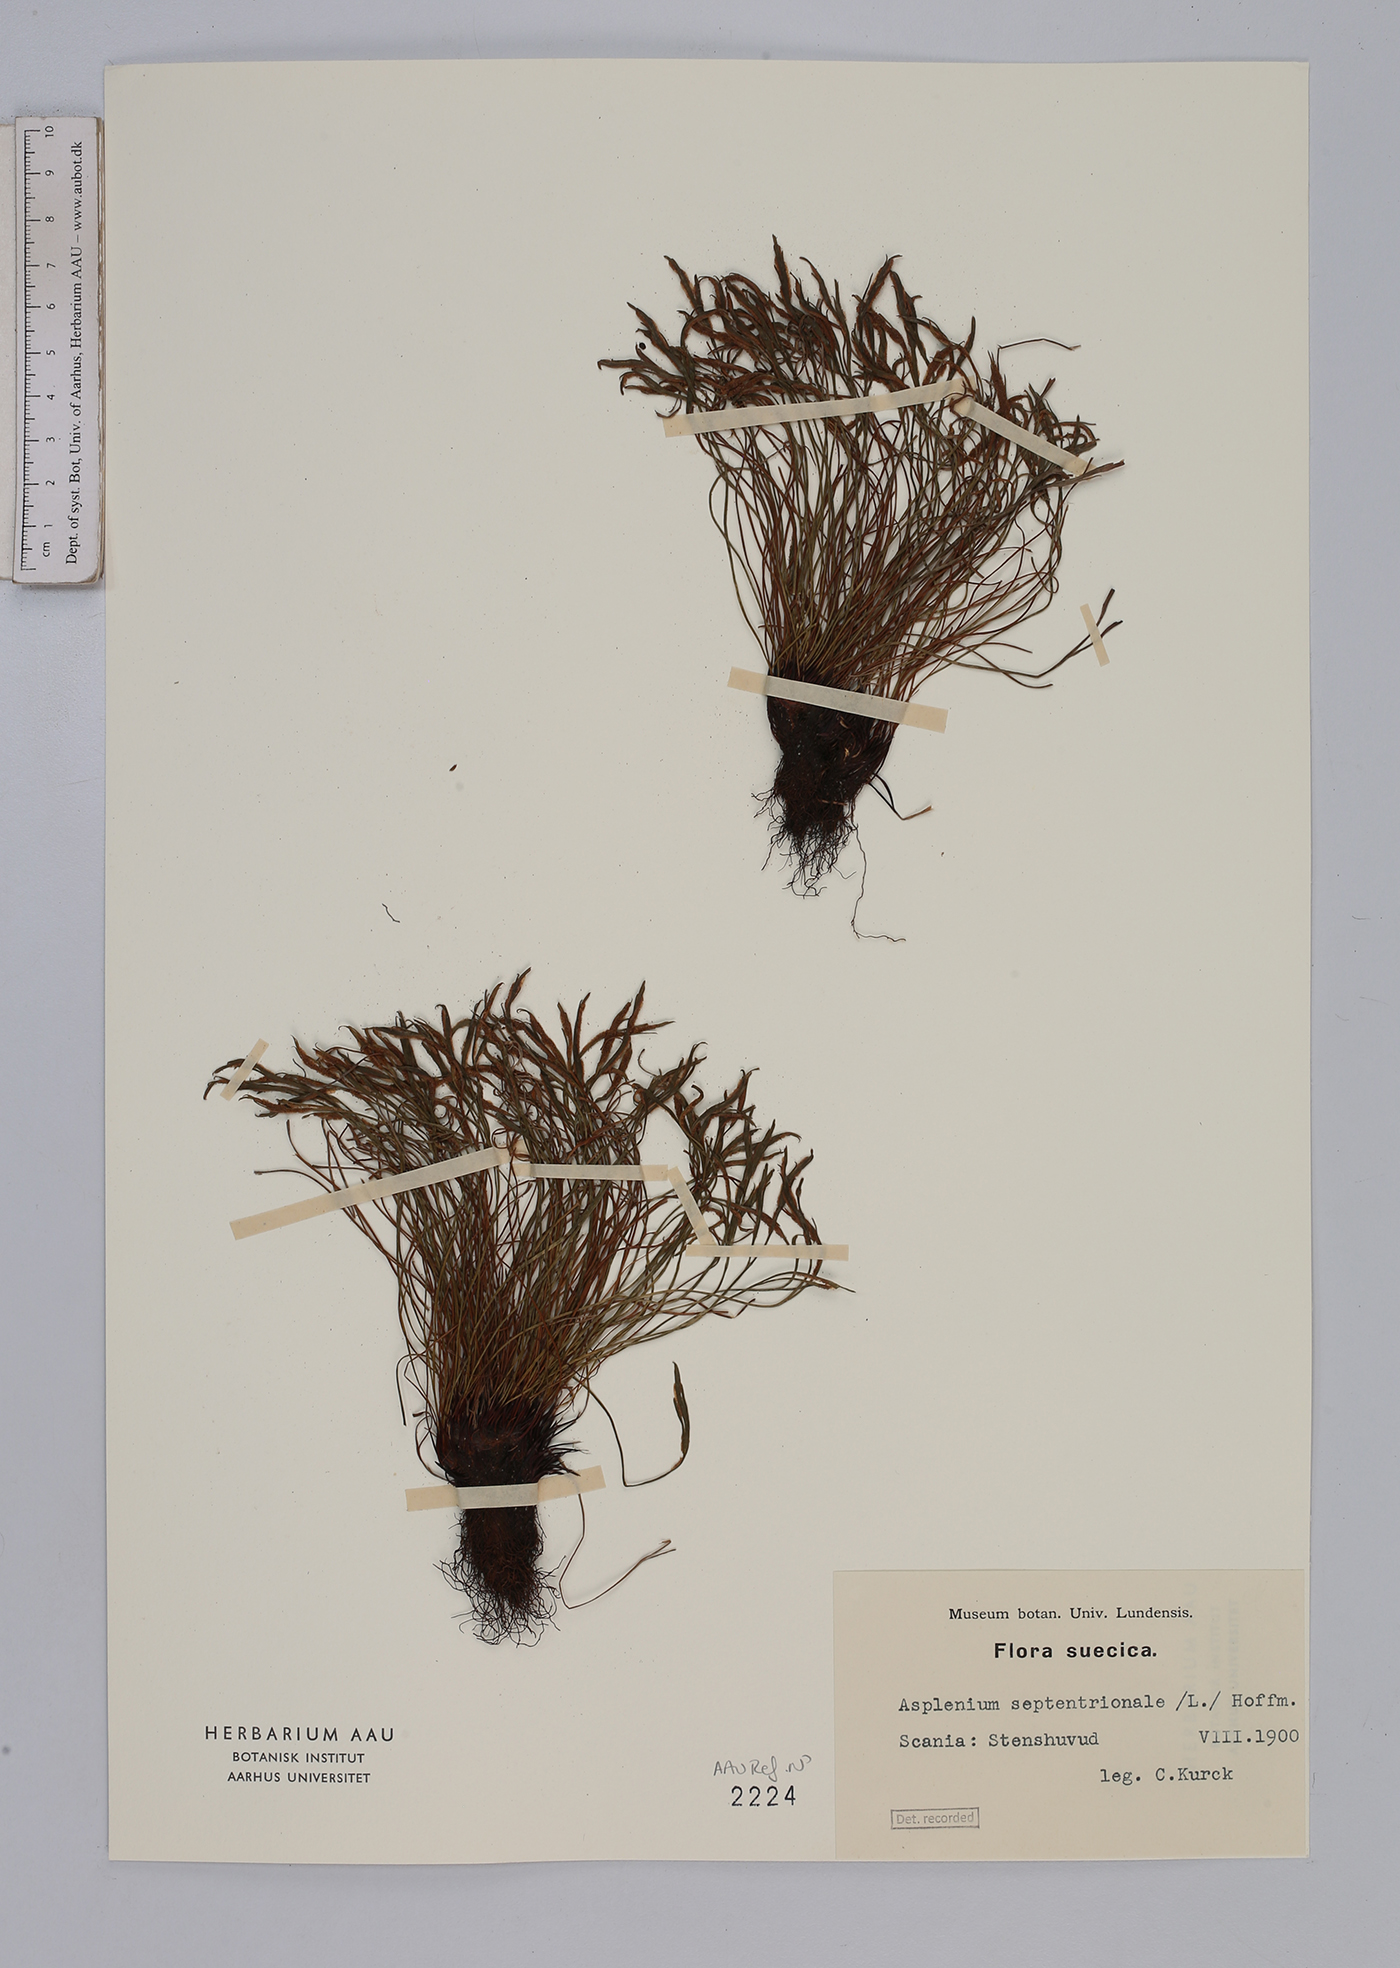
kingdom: Plantae
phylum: Tracheophyta
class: Polypodiopsida
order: Polypodiales
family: Aspleniaceae
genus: Asplenium
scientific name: Asplenium septentrionale
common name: Forked spleenwort
